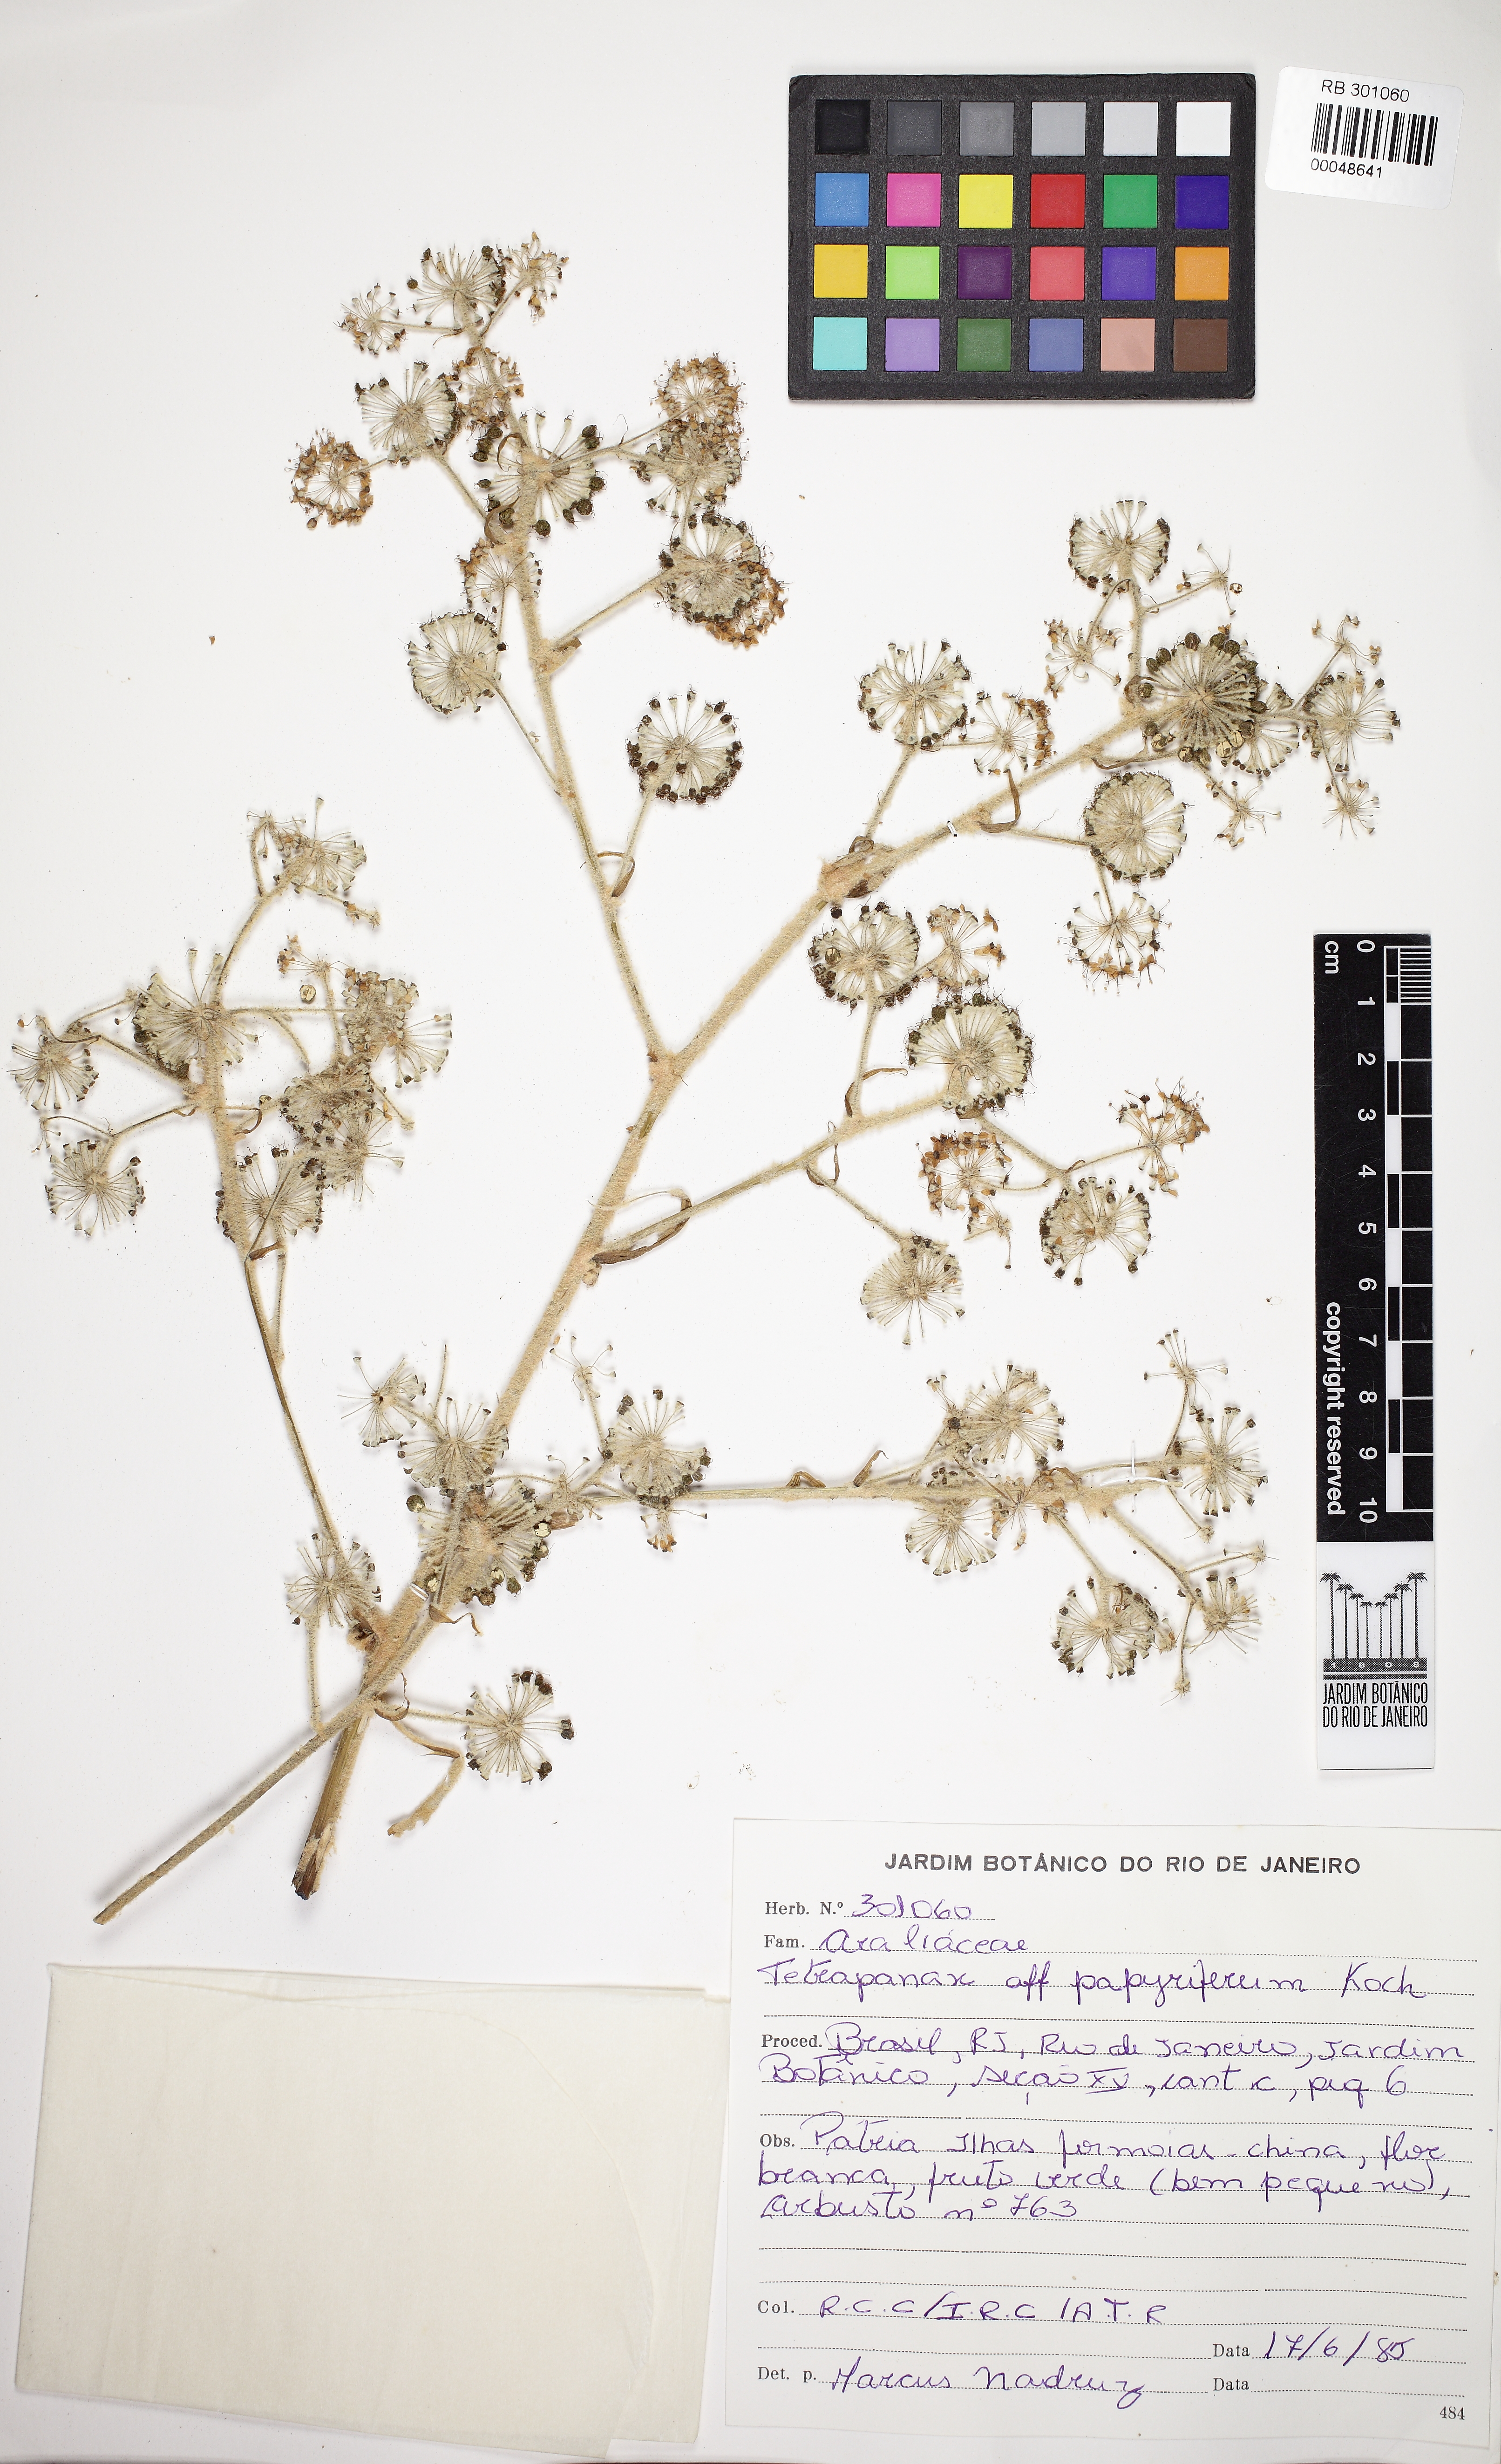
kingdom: Plantae
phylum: Tracheophyta
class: Magnoliopsida
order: Apiales
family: Araliaceae
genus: Tetrapanax
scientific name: Tetrapanax papyrifer
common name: Rice-paper plant
